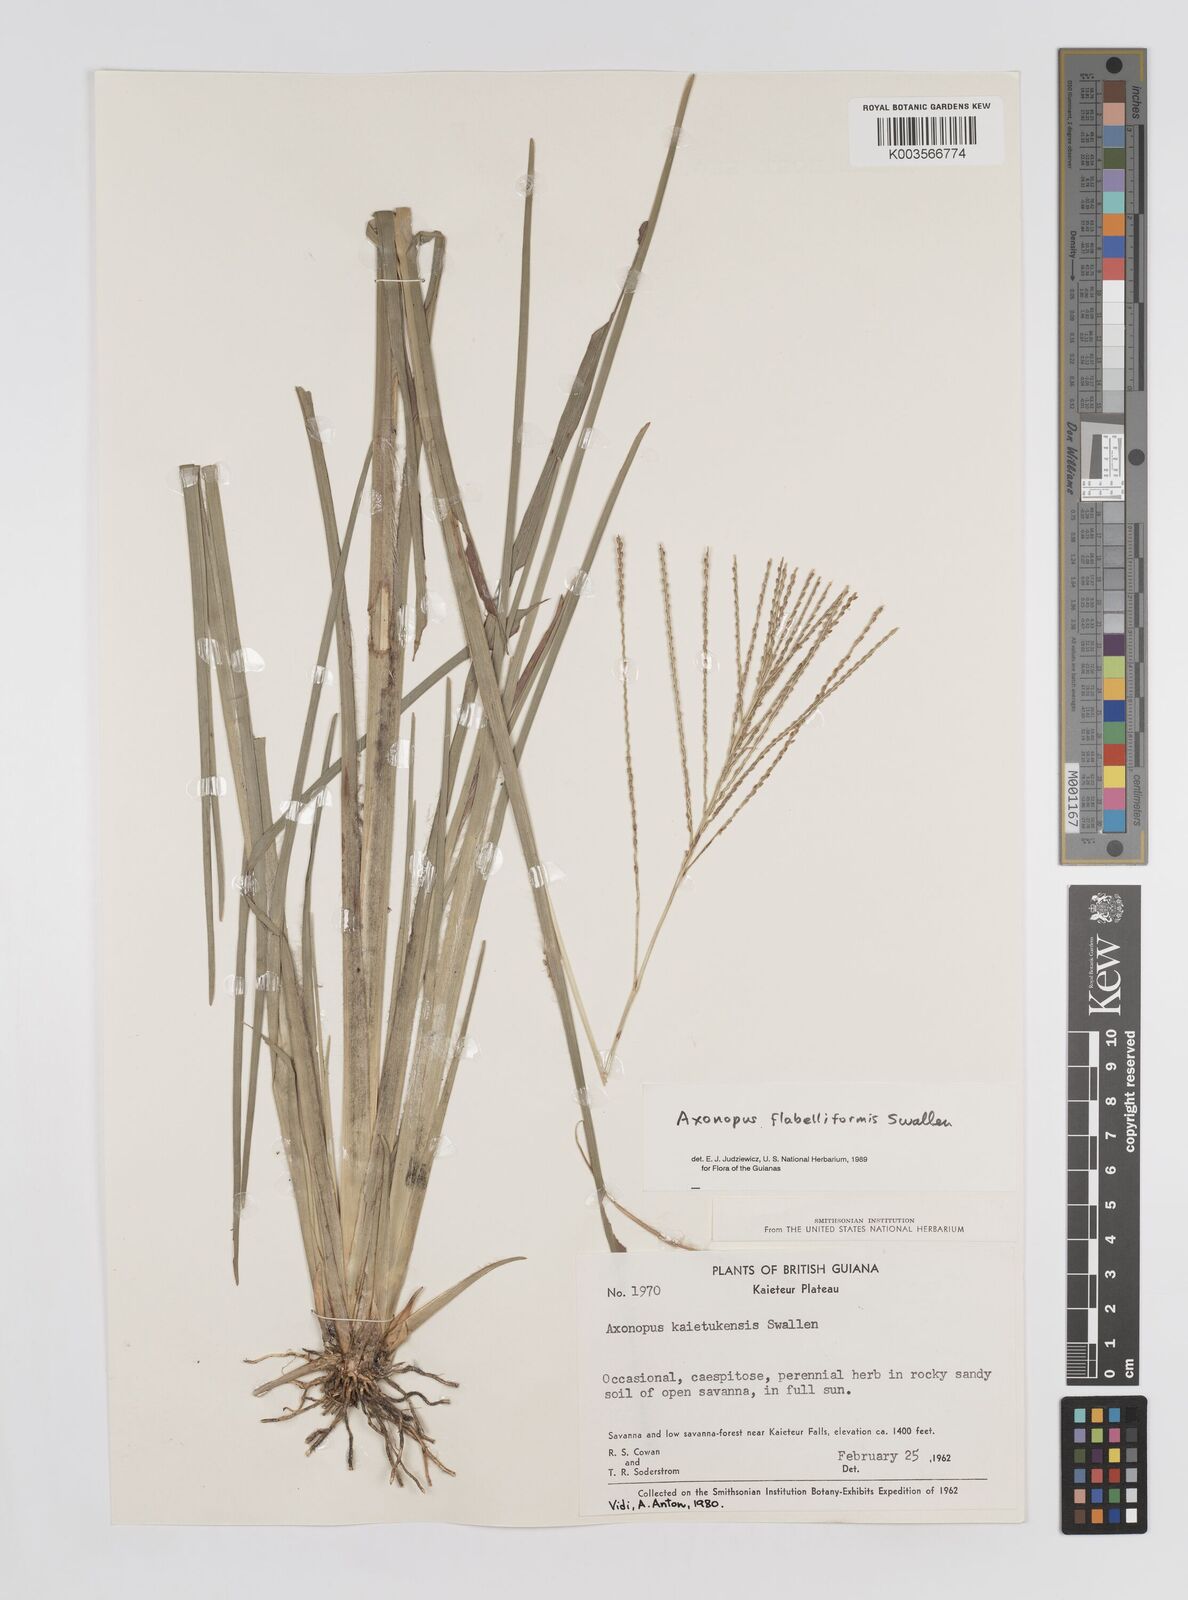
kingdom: Plantae
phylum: Tracheophyta
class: Liliopsida
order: Poales
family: Poaceae
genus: Axonopus
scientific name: Axonopus flabelliformis
